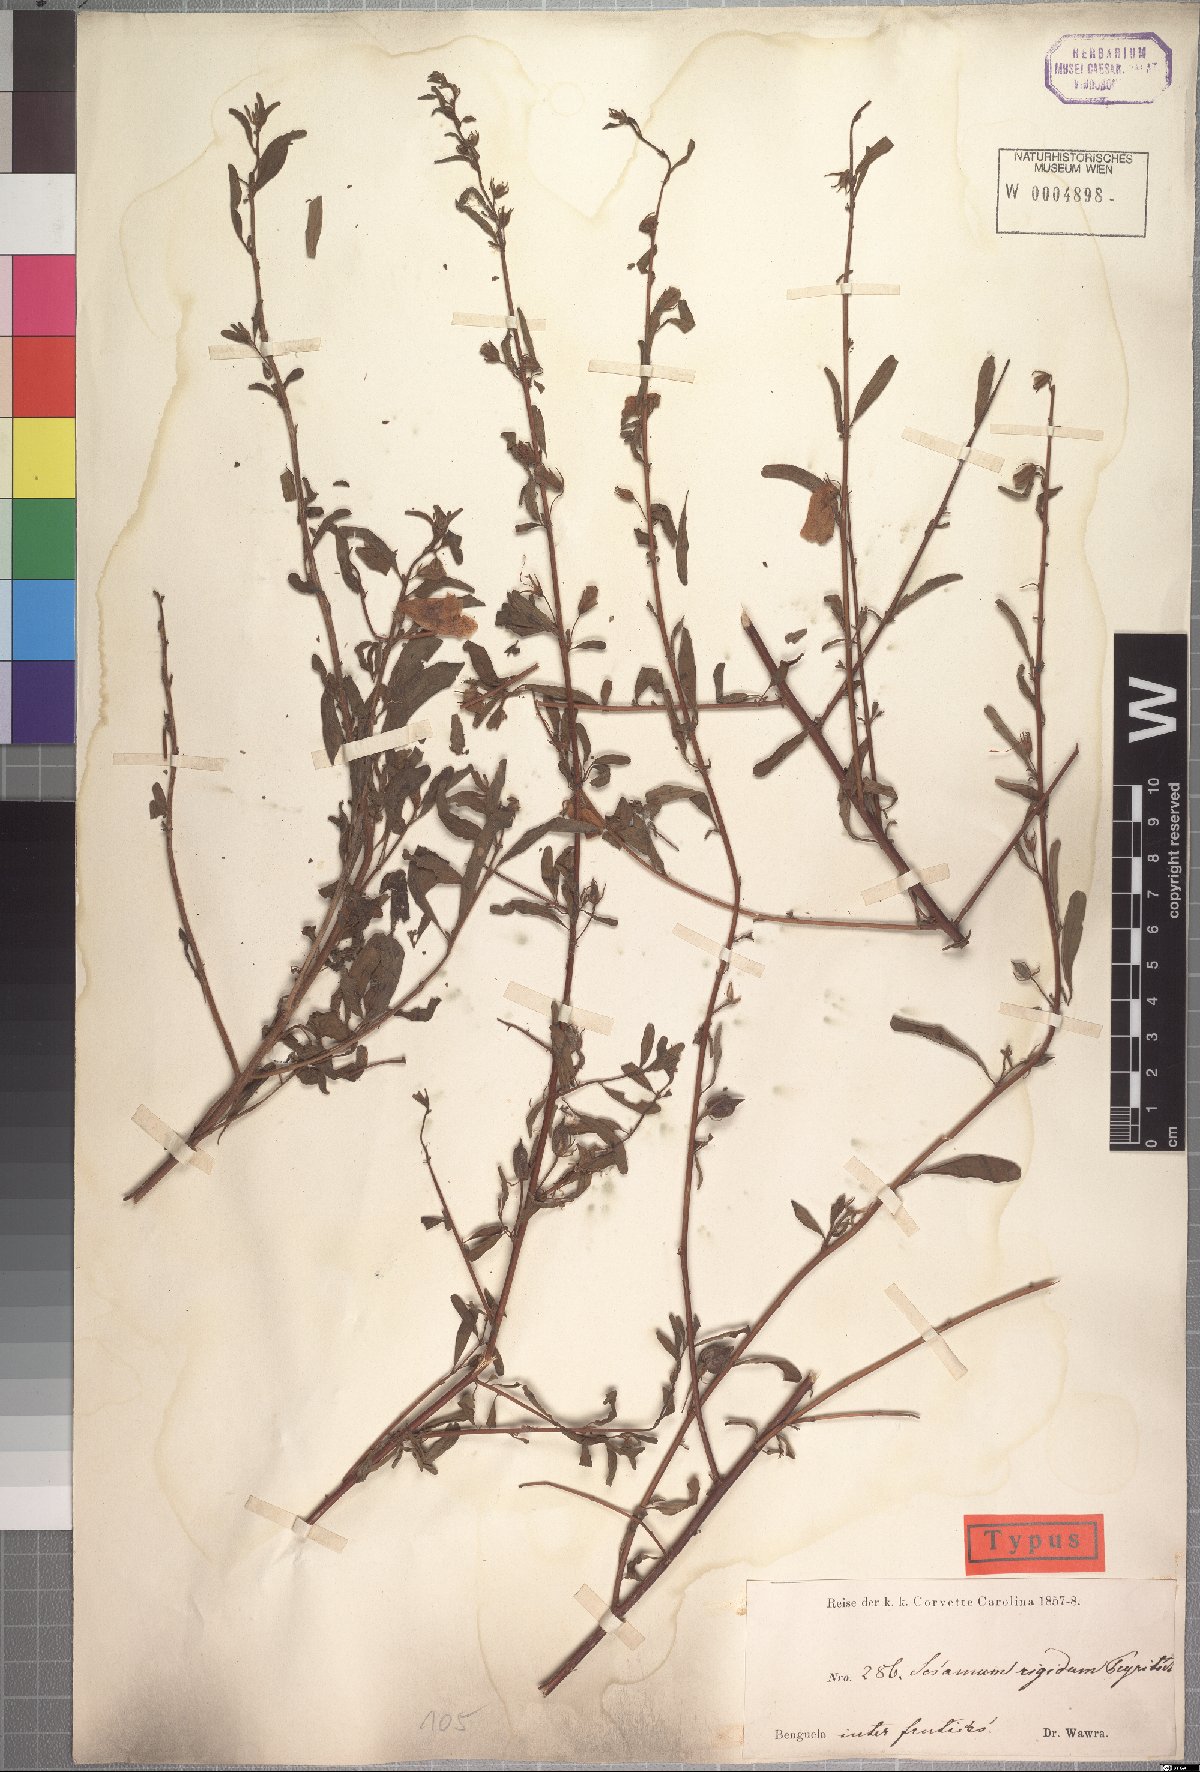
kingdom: Plantae
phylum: Tracheophyta
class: Magnoliopsida
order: Lamiales
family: Pedaliaceae
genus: Sesamum
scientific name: Sesamum rigidum
